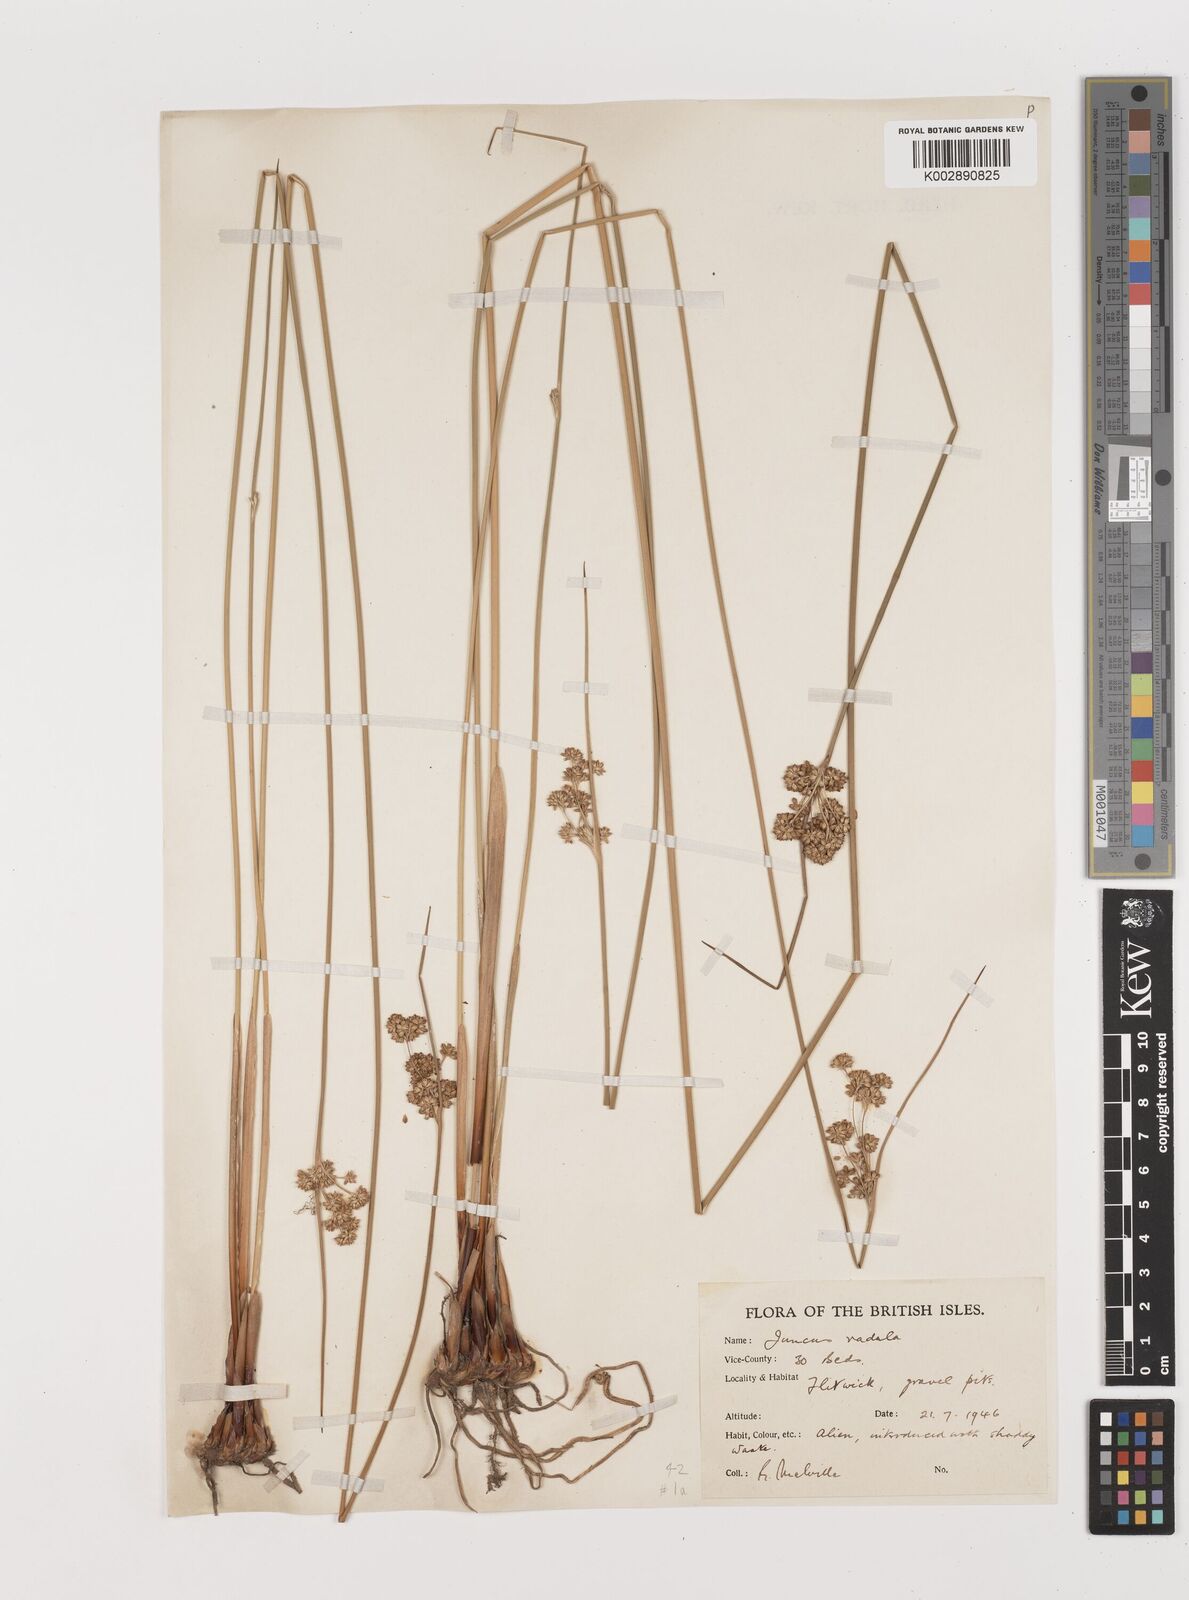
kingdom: Plantae
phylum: Tracheophyta
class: Liliopsida
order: Poales
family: Juncaceae
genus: Juncus
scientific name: Juncus radula
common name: Hoary rush
